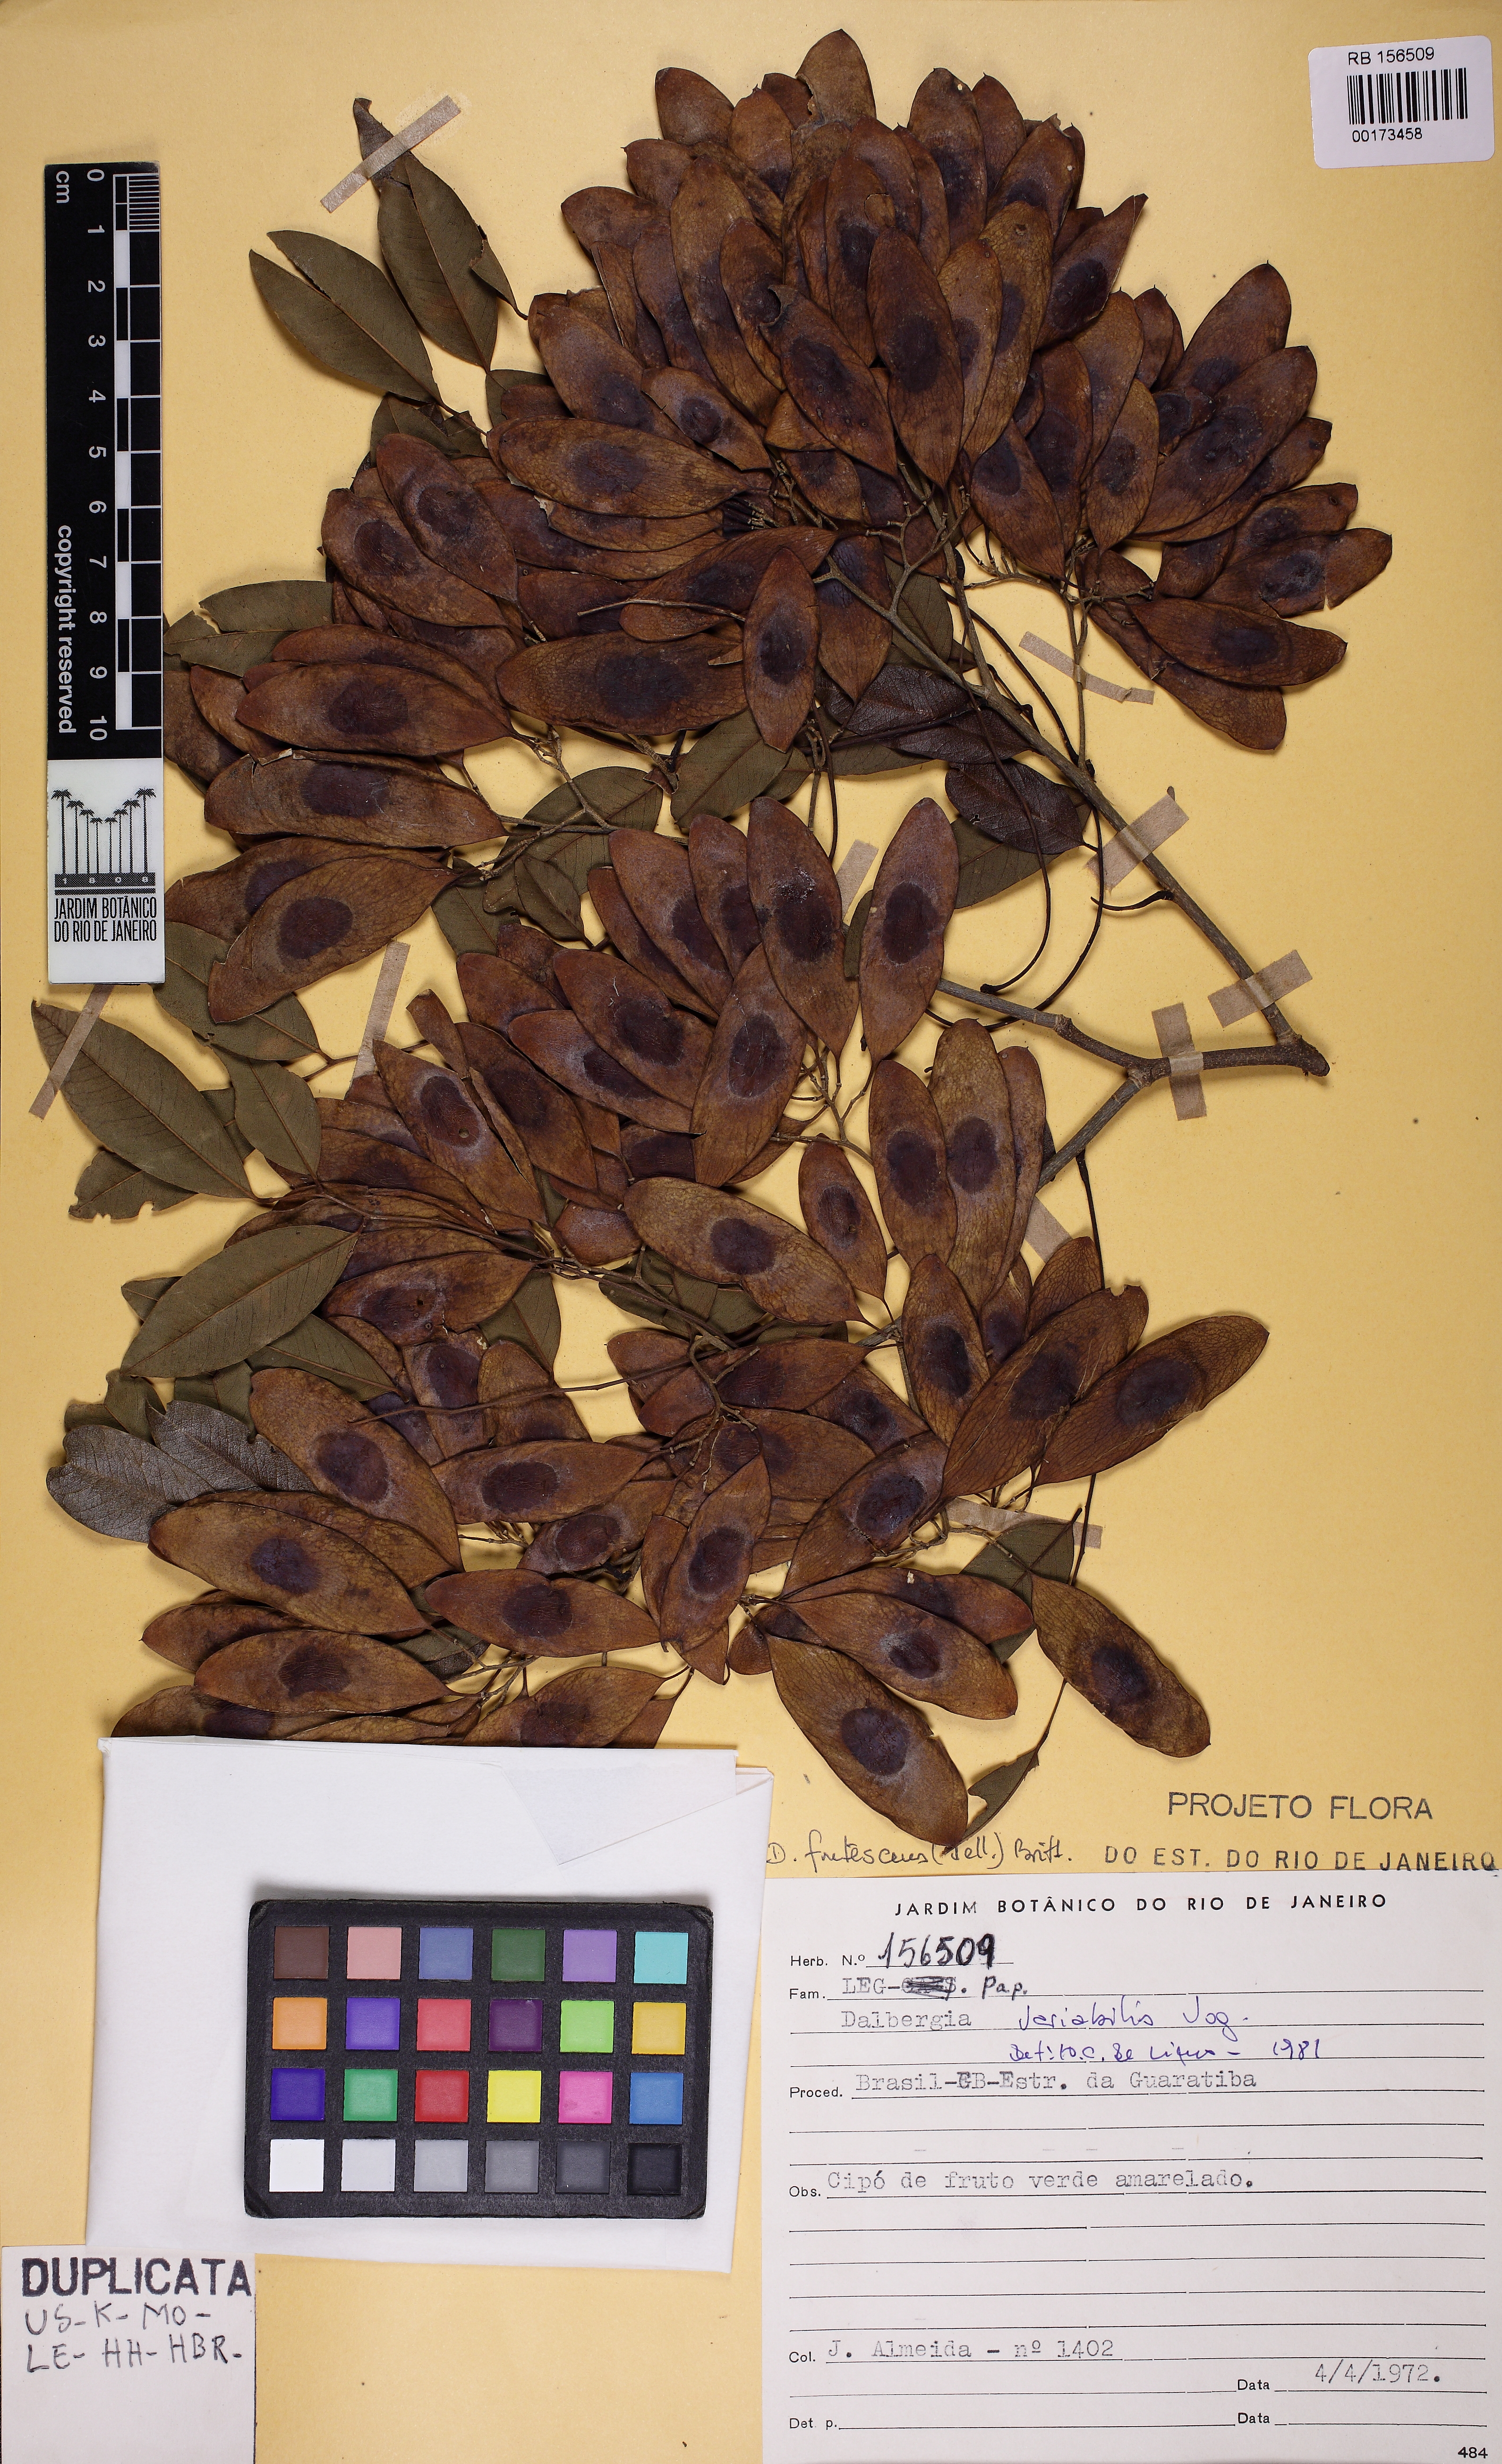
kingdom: Plantae
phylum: Tracheophyta
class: Magnoliopsida
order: Fabales
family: Fabaceae
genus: Dalbergia
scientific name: Dalbergia frutescens
